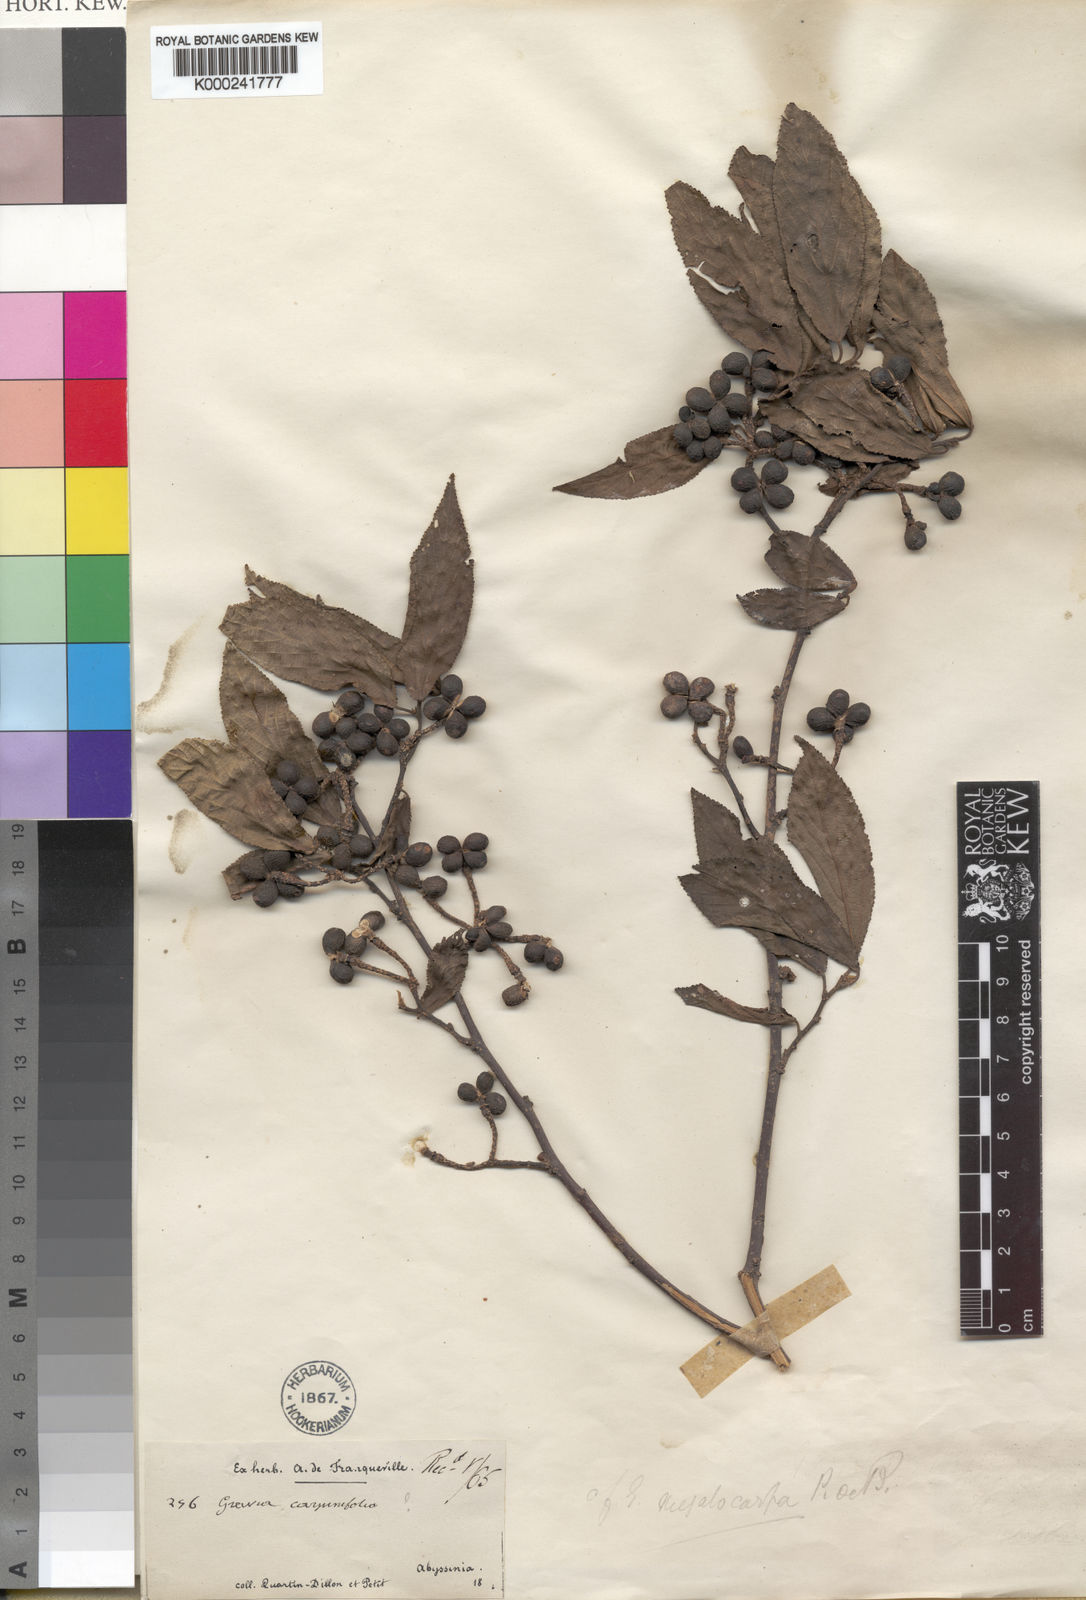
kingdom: Plantae
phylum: Tracheophyta
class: Magnoliopsida
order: Malvales
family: Malvaceae
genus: Grewia
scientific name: Grewia ferruginea
